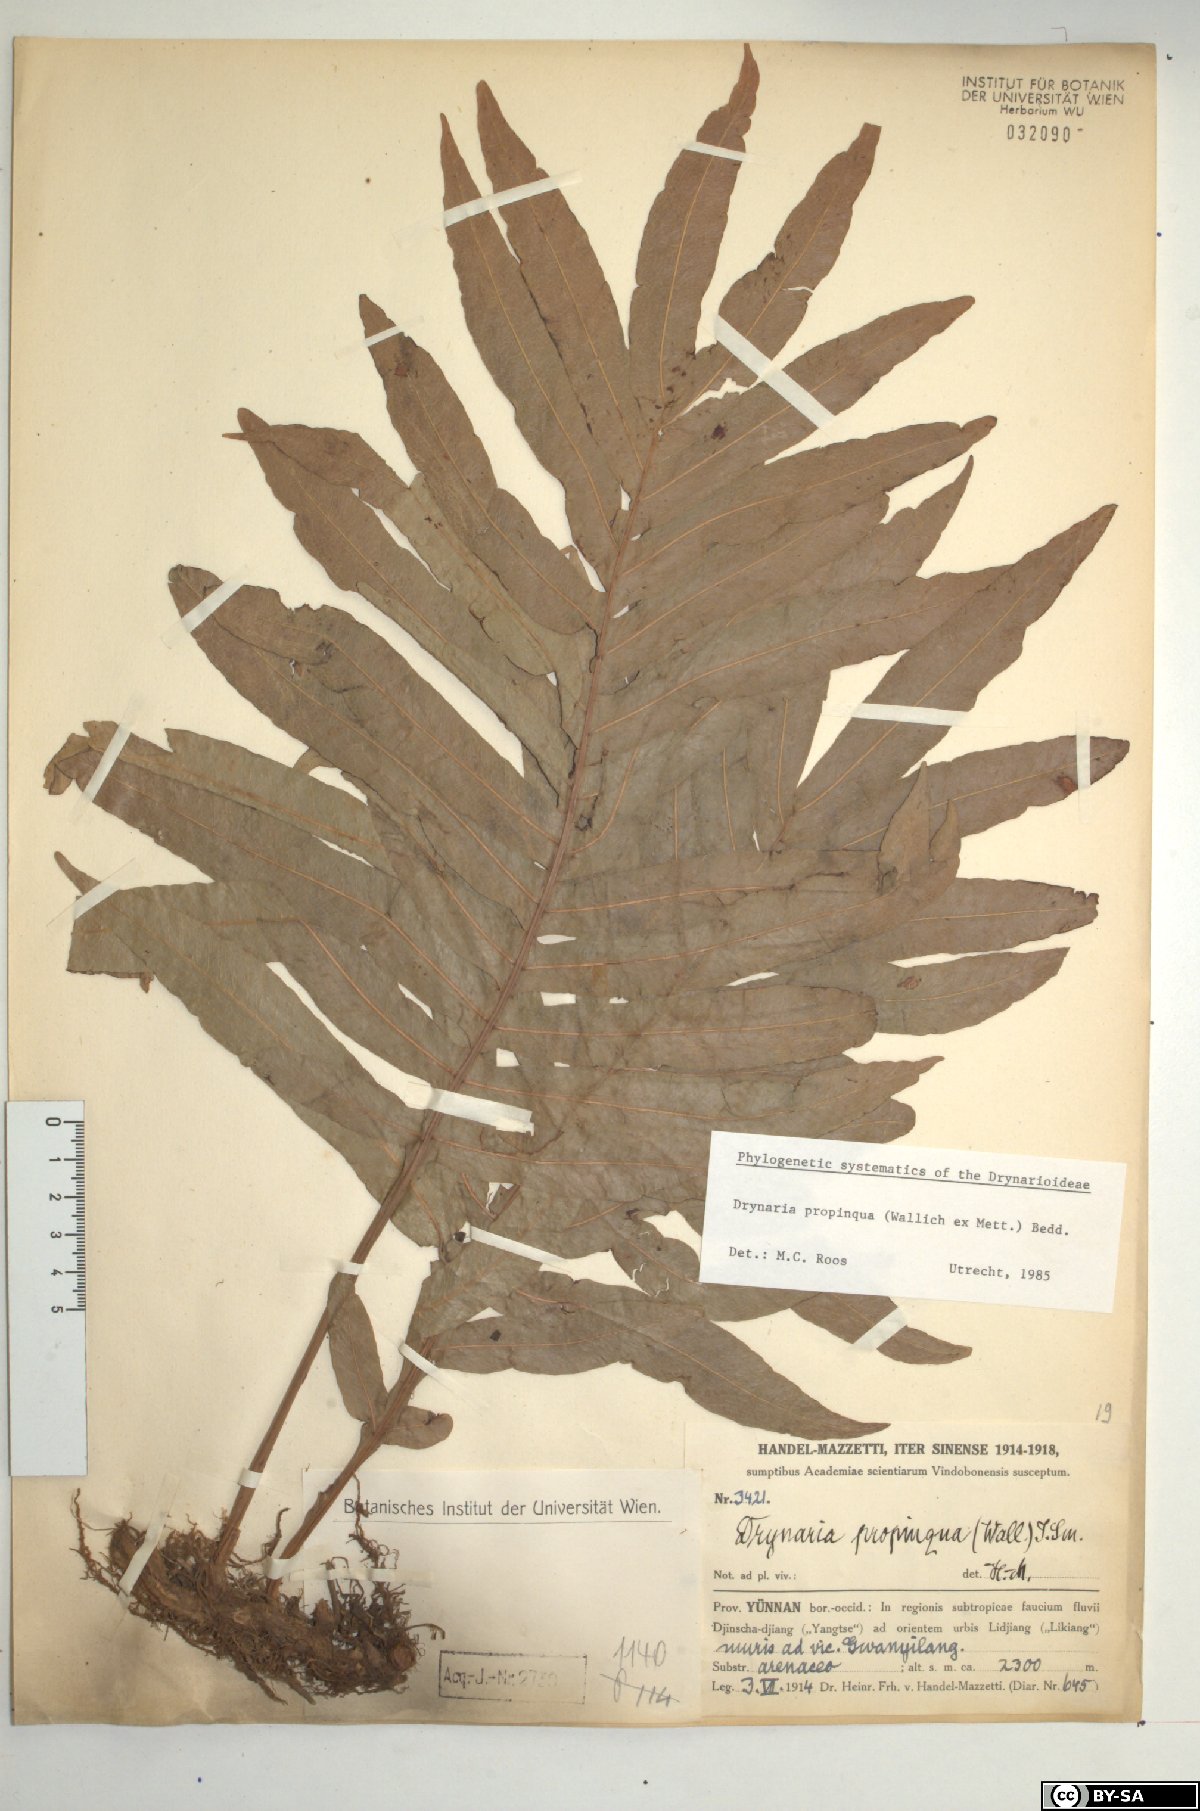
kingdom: Plantae
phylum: Tracheophyta
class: Polypodiopsida
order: Polypodiales
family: Polypodiaceae
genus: Drynaria
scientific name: Drynaria propinqua
